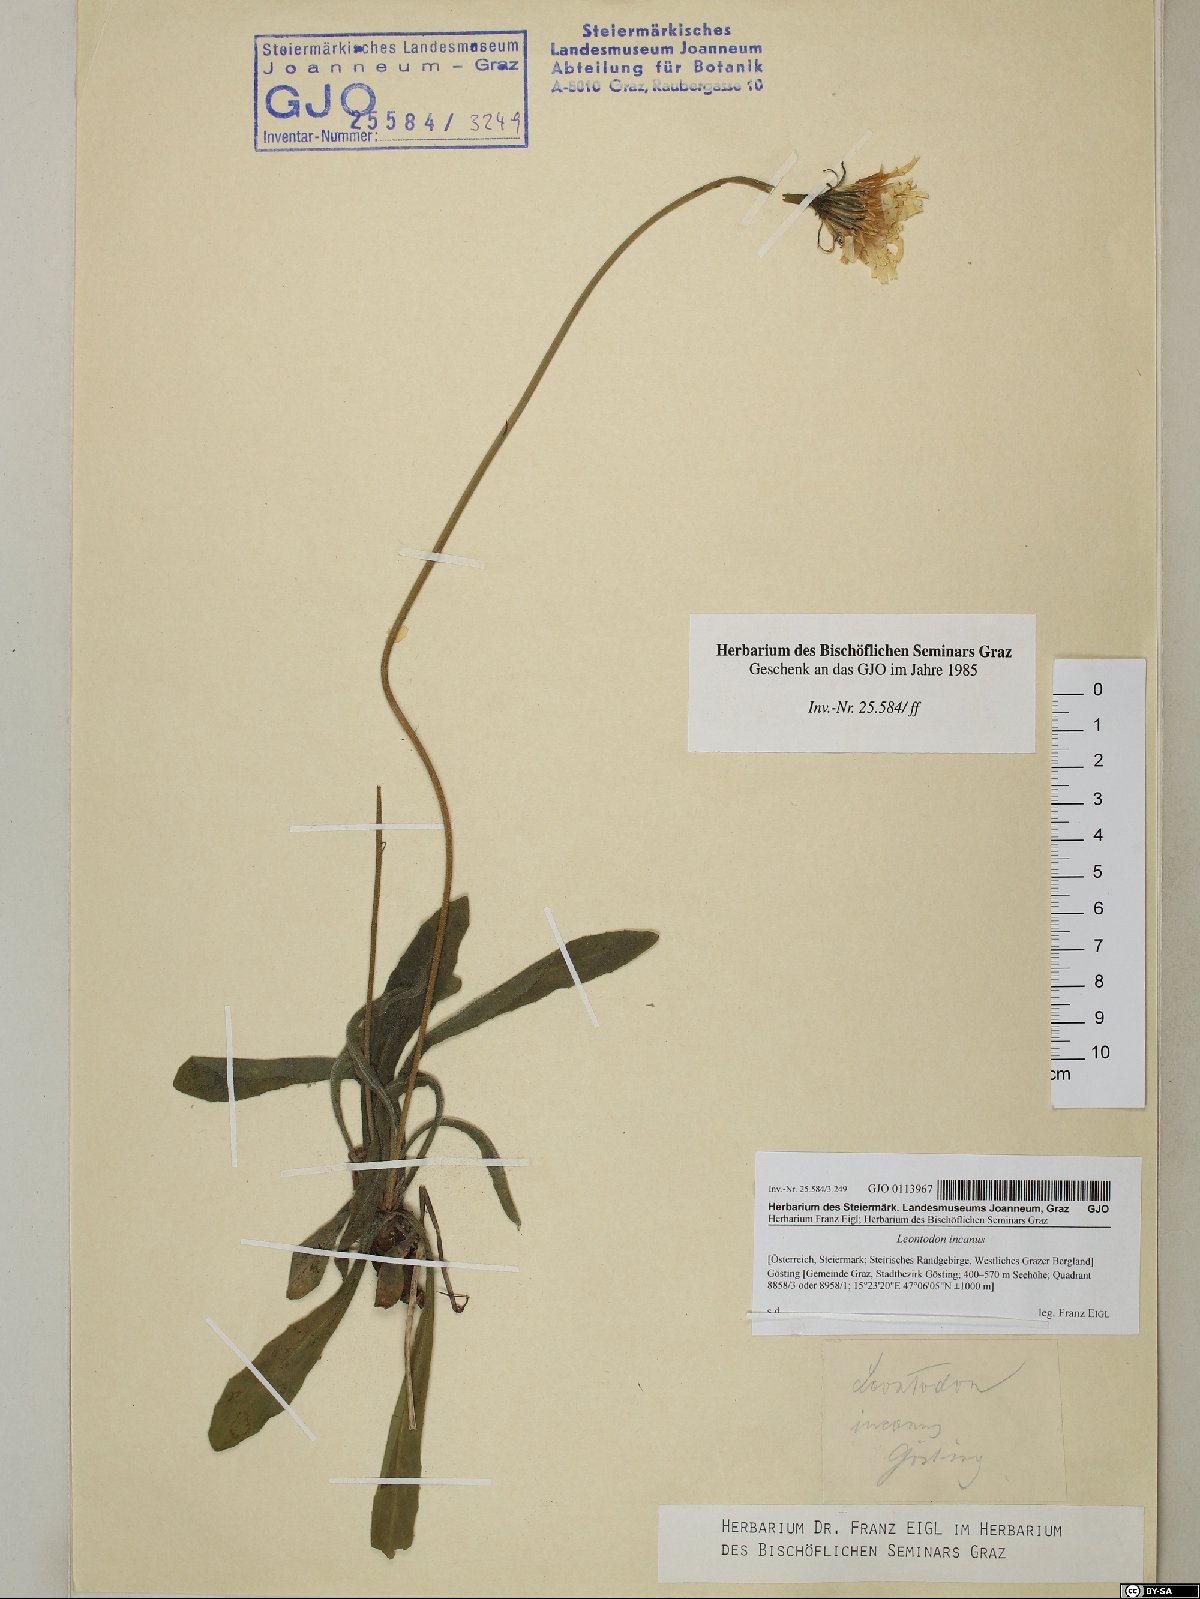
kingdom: Plantae
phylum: Tracheophyta
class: Magnoliopsida
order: Asterales
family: Asteraceae
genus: Leontodon
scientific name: Leontodon incanus
